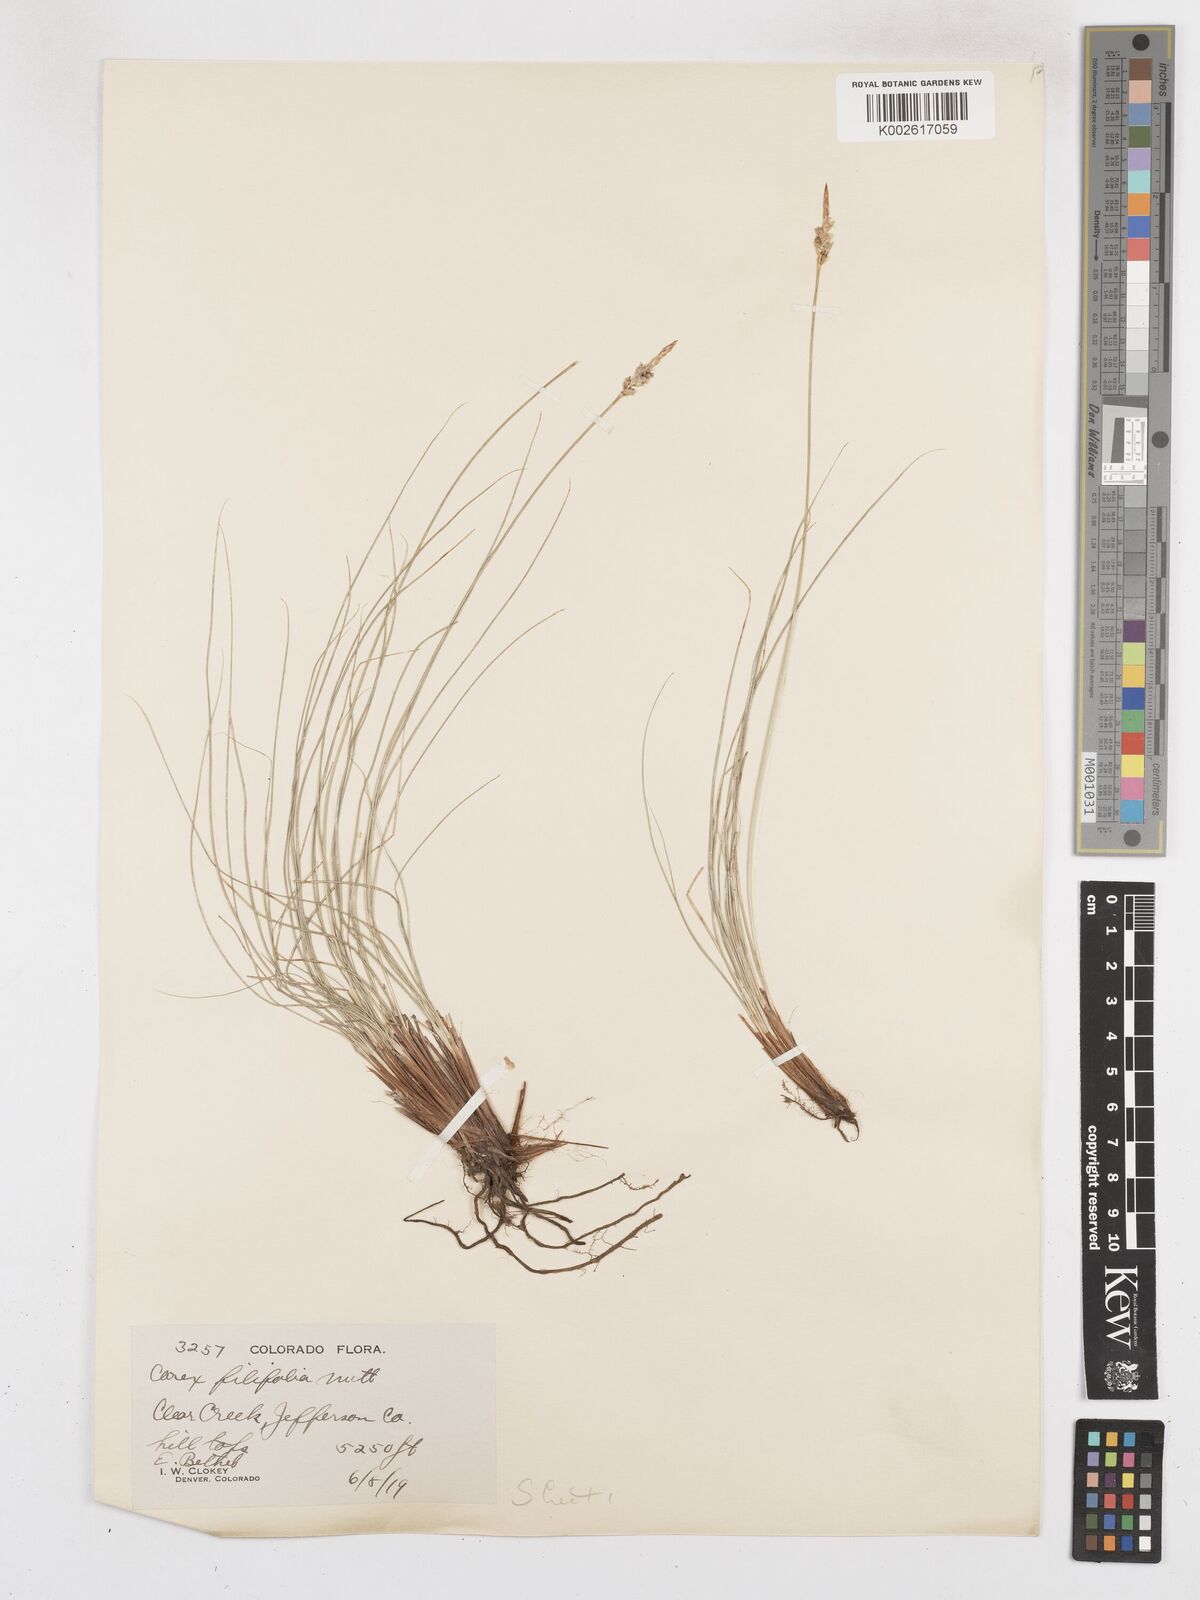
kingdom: Plantae
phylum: Tracheophyta
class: Liliopsida
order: Poales
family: Cyperaceae
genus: Carex
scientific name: Carex filifolia
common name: Threadleaf sedge
